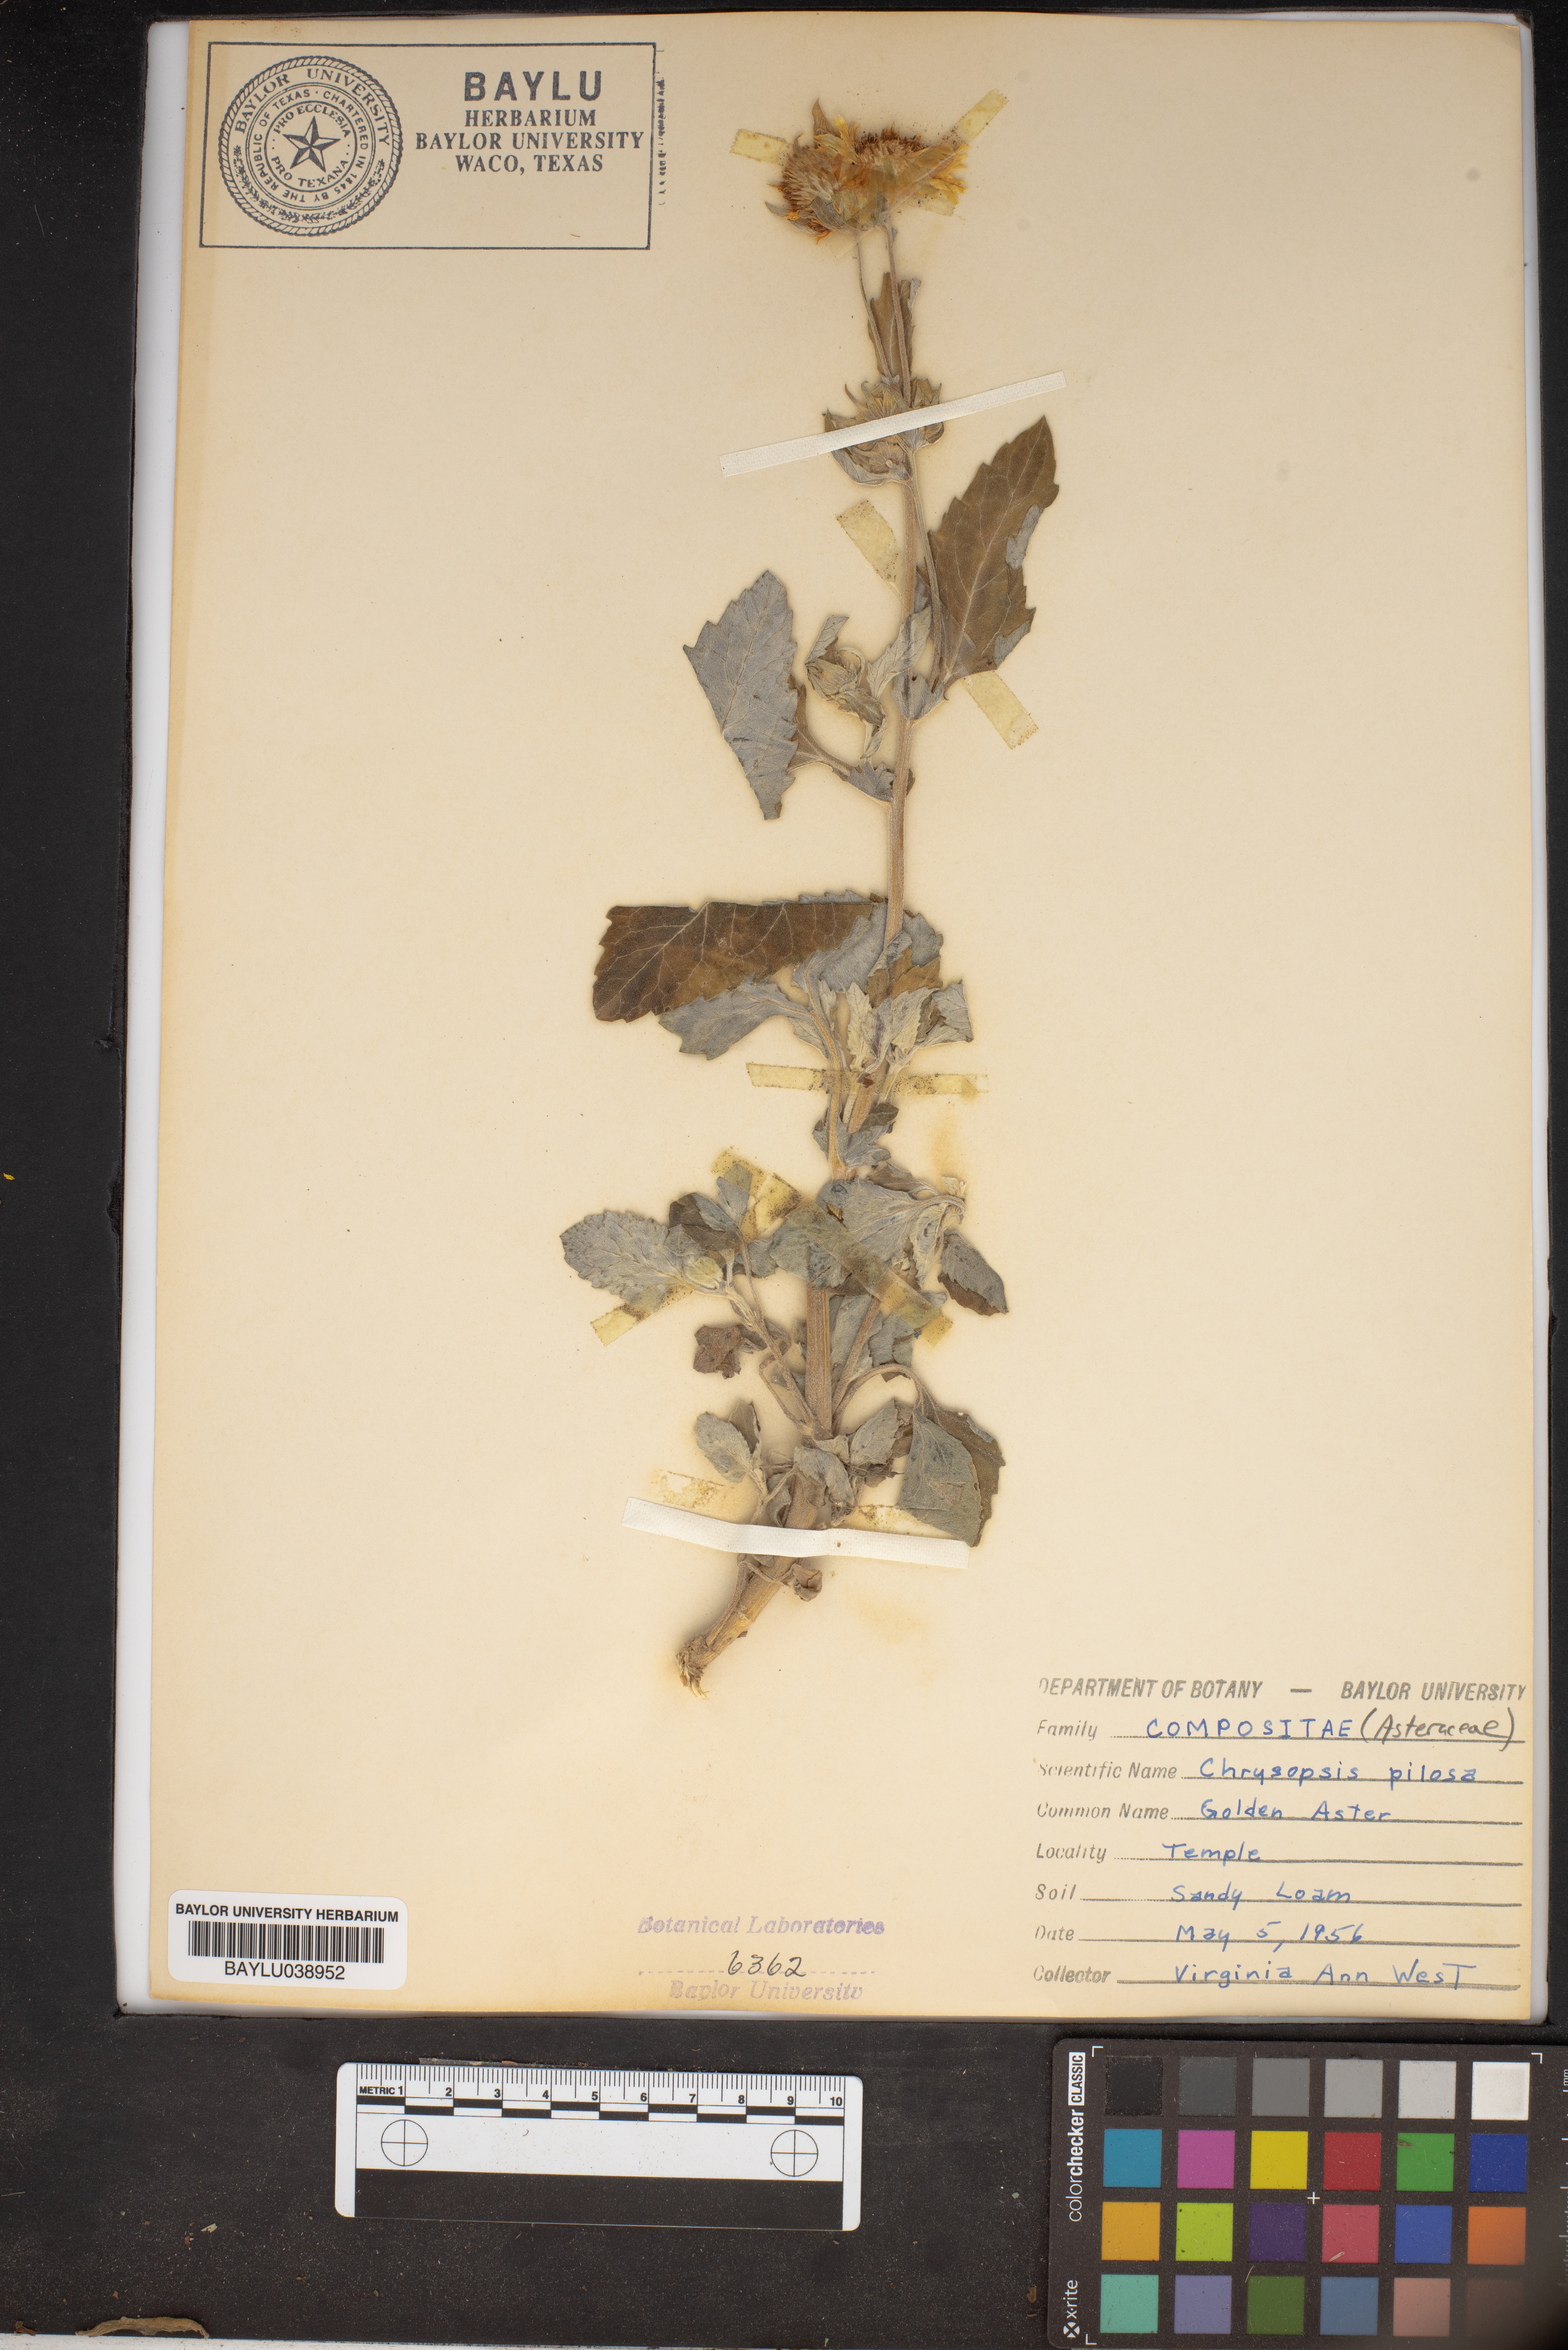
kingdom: Plantae
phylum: Tracheophyta
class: Magnoliopsida
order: Asterales
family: Asteraceae
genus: Bradburia
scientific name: Bradburia pilosa
